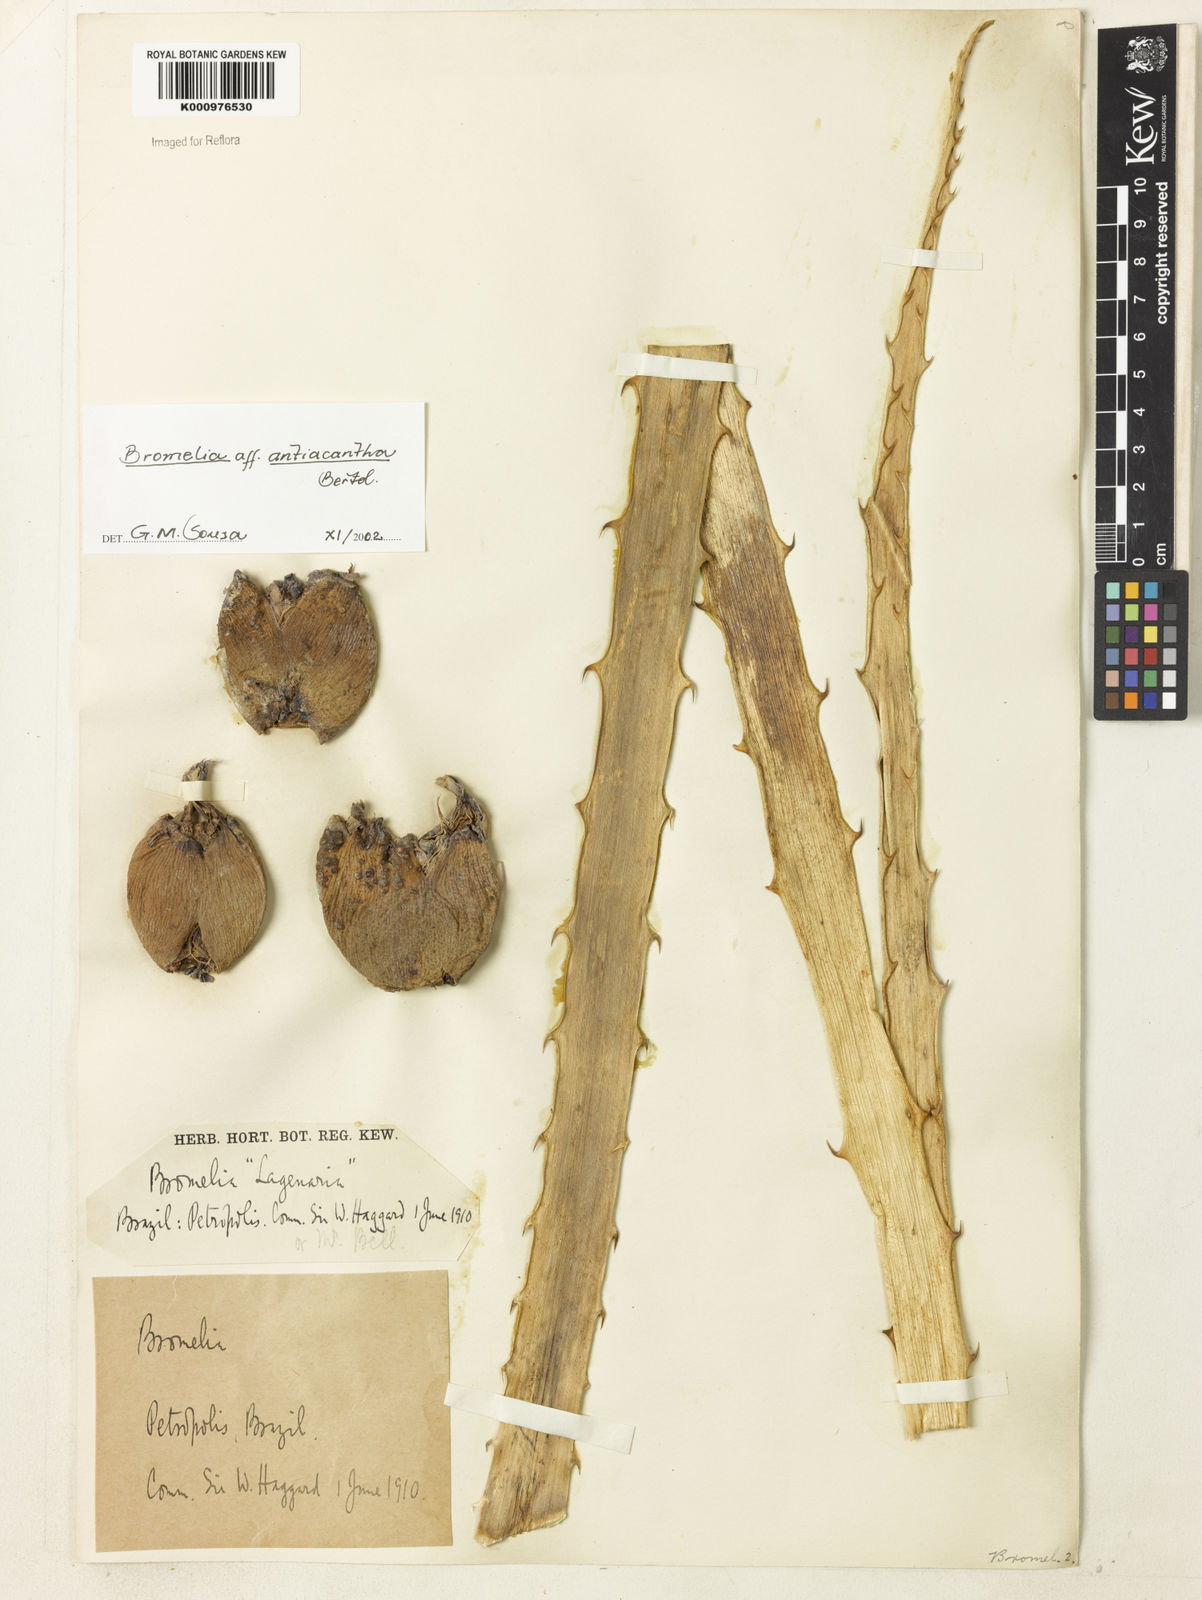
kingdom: Plantae
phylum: Tracheophyta
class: Liliopsida
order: Poales
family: Bromeliaceae
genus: Bromelia
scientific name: Bromelia antiacantha
